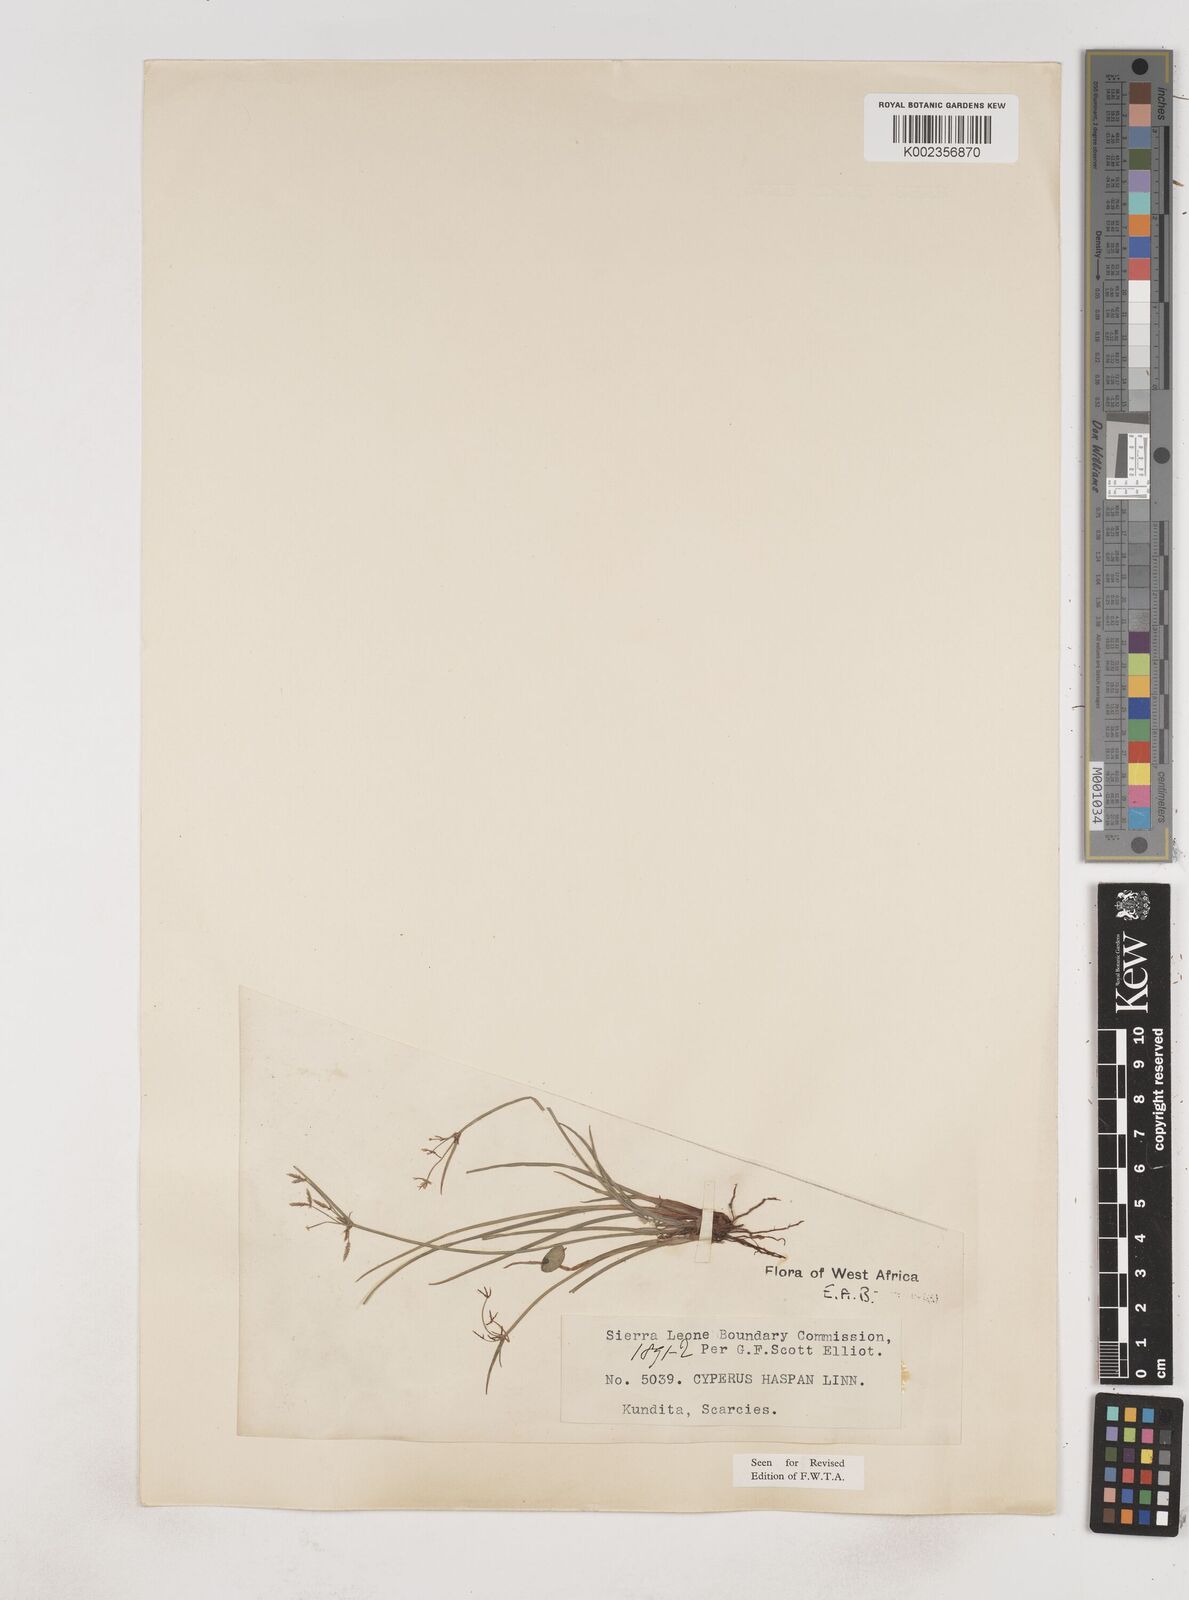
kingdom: Plantae
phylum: Tracheophyta
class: Liliopsida
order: Poales
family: Cyperaceae
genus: Cyperus
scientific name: Cyperus haspan
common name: Haspan flatsedge
